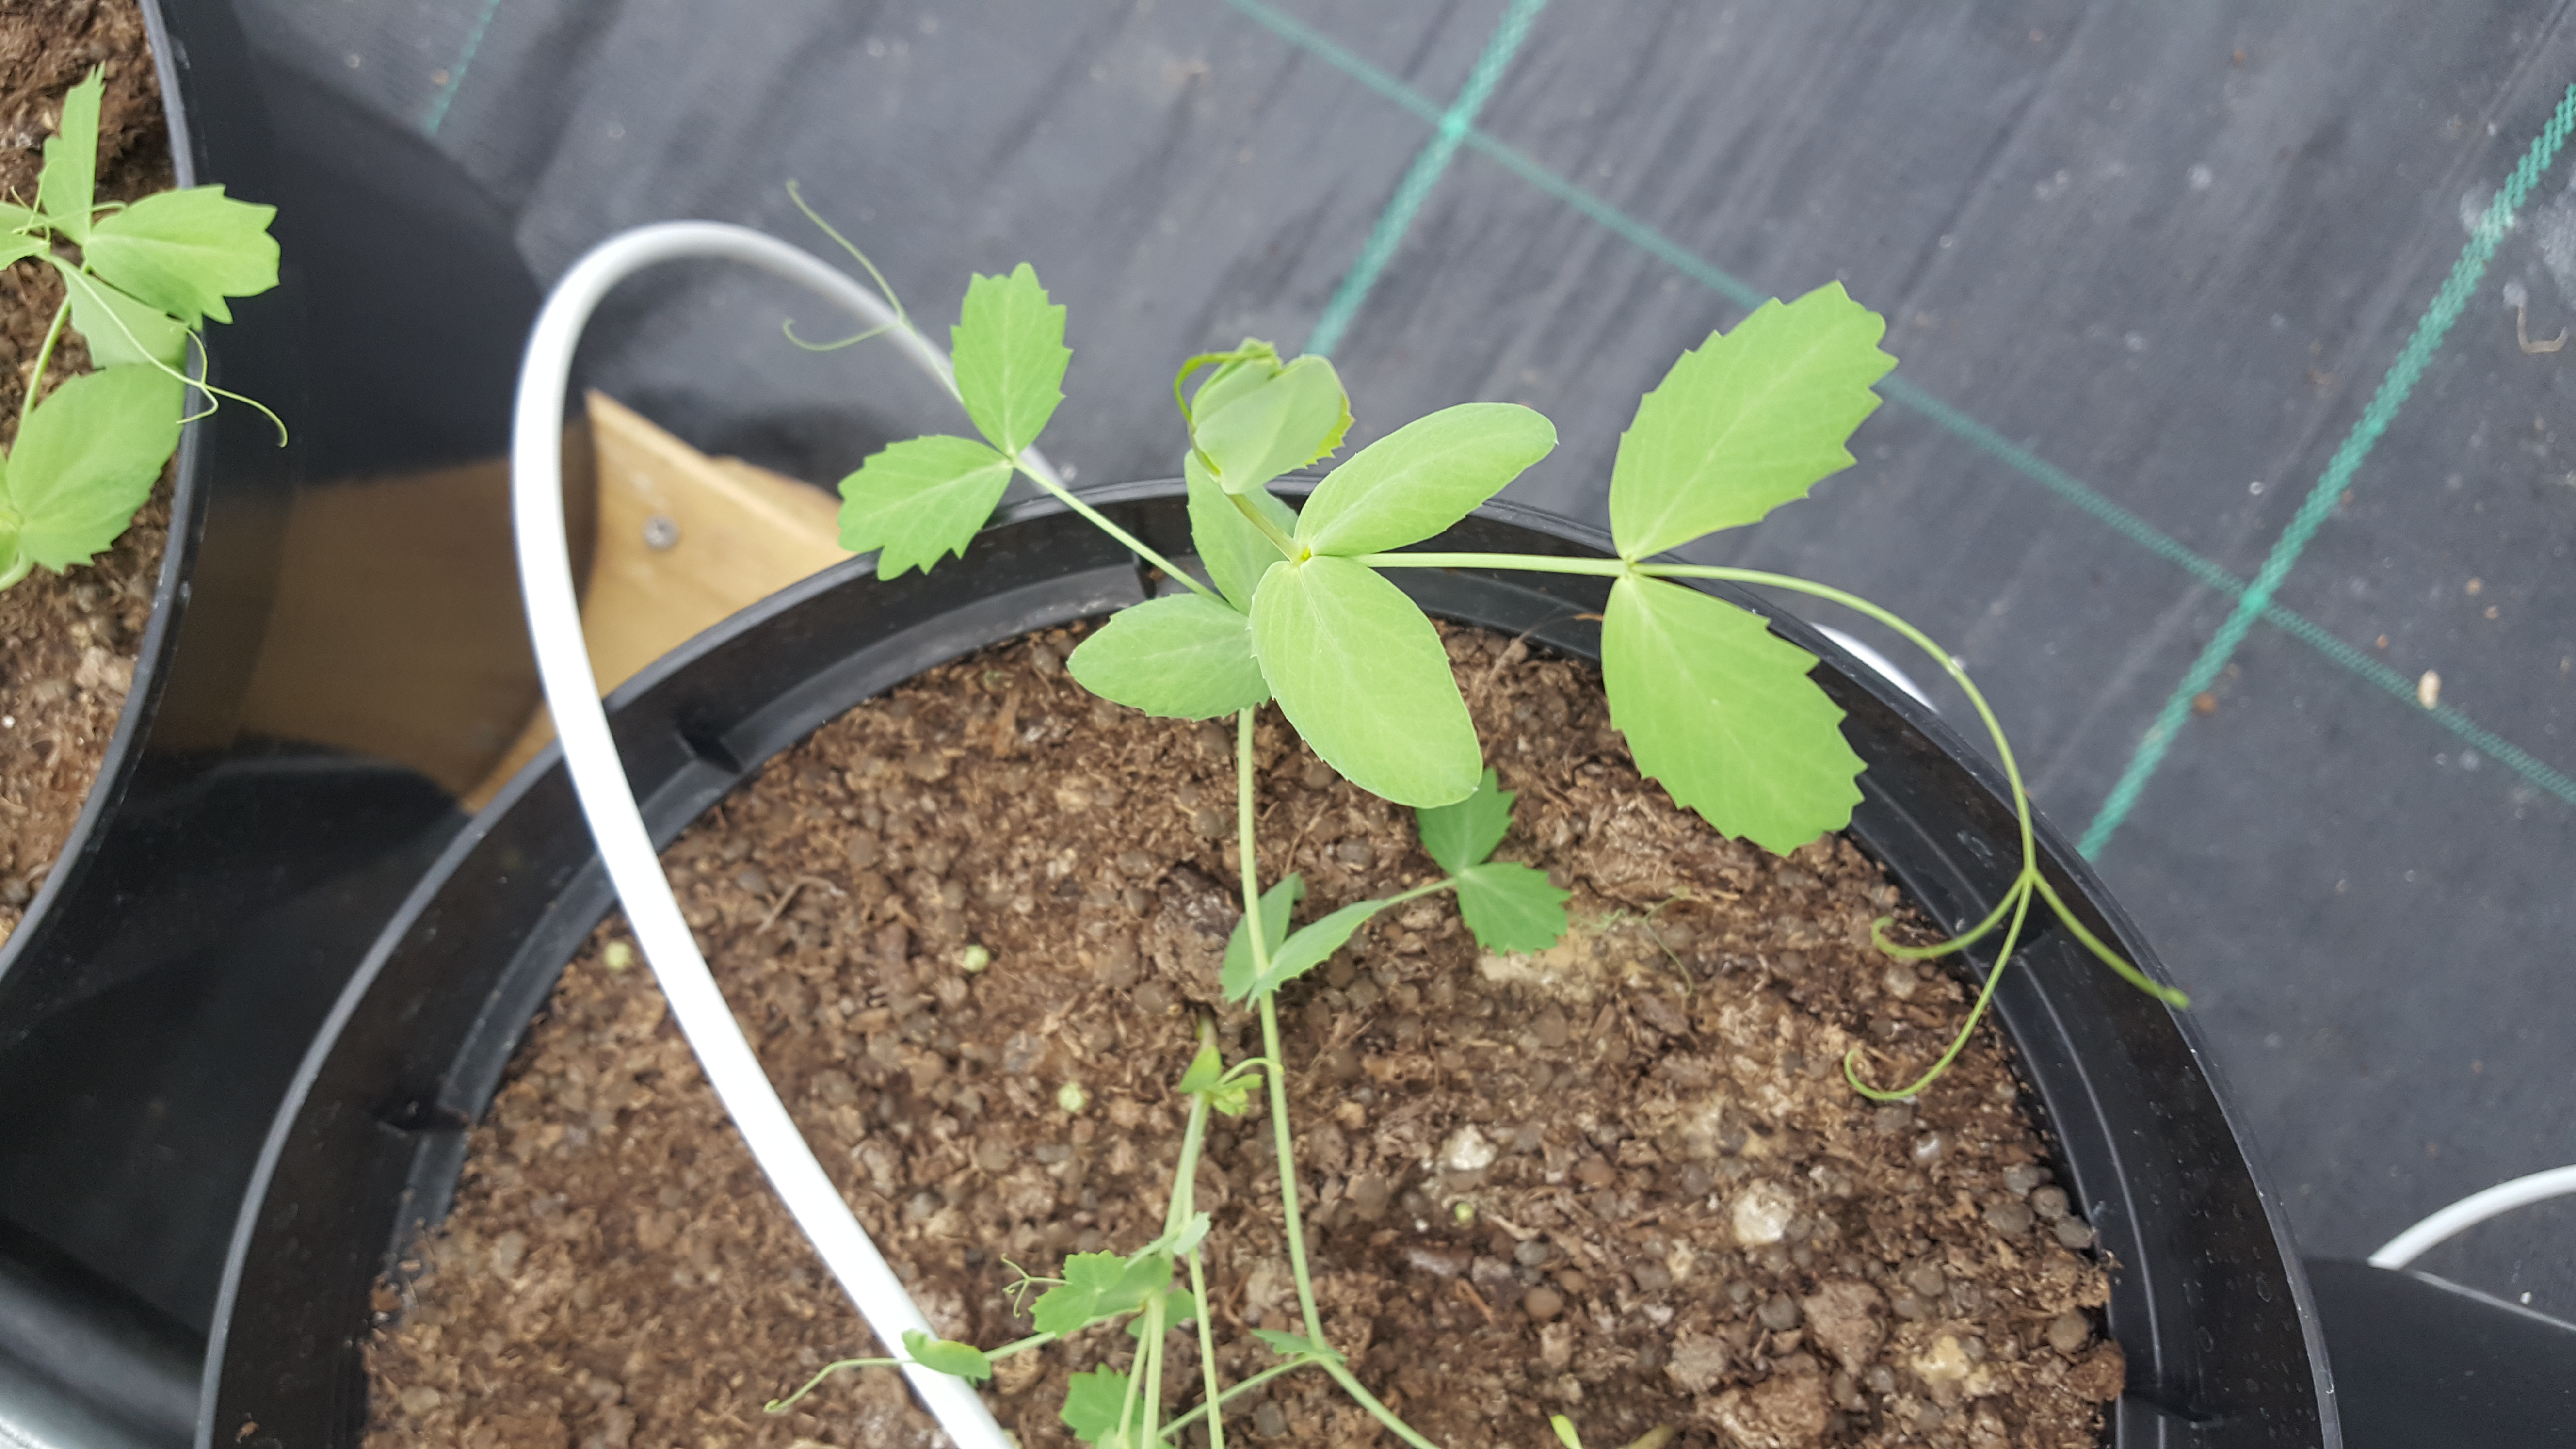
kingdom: Plantae
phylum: Tracheophyta
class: Magnoliopsida
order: Fabales
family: Fabaceae
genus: Lathyrus
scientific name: Lathyrus oleraceus
